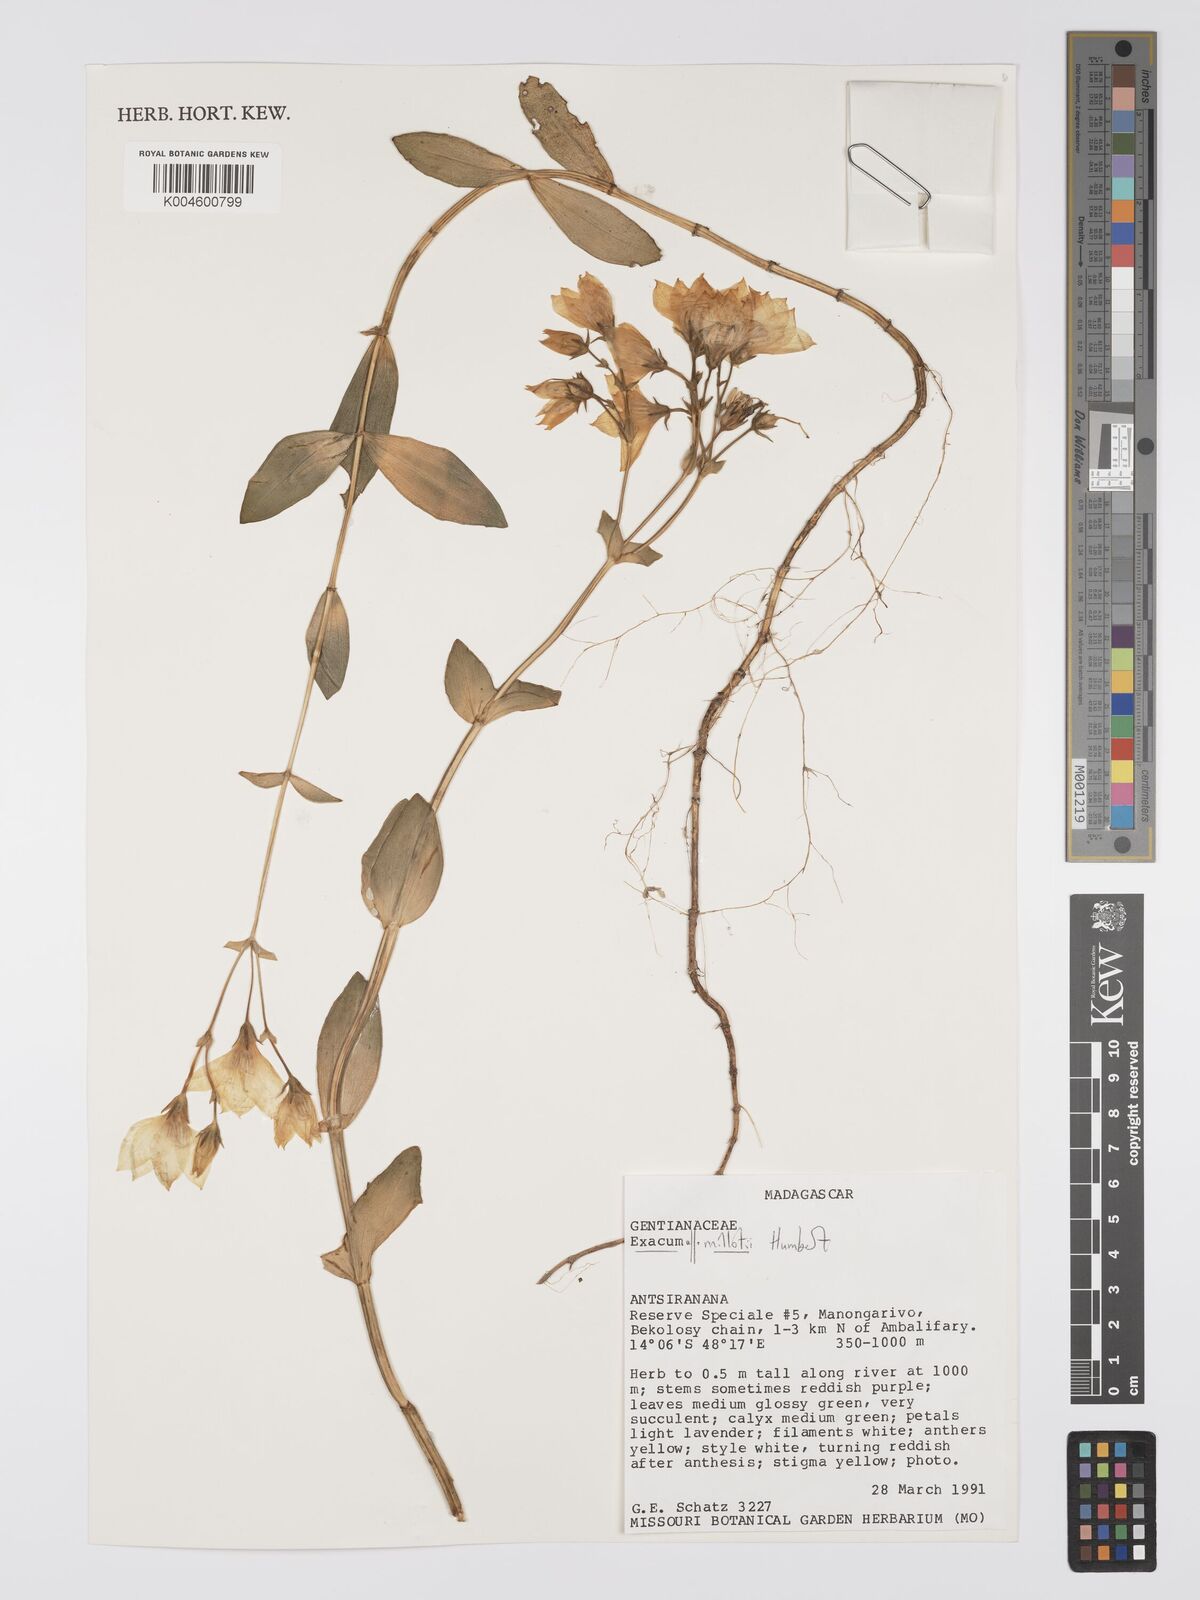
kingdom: Plantae
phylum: Tracheophyta
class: Magnoliopsida
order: Gentianales
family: Gentianaceae
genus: Exacum
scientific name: Exacum millotii
